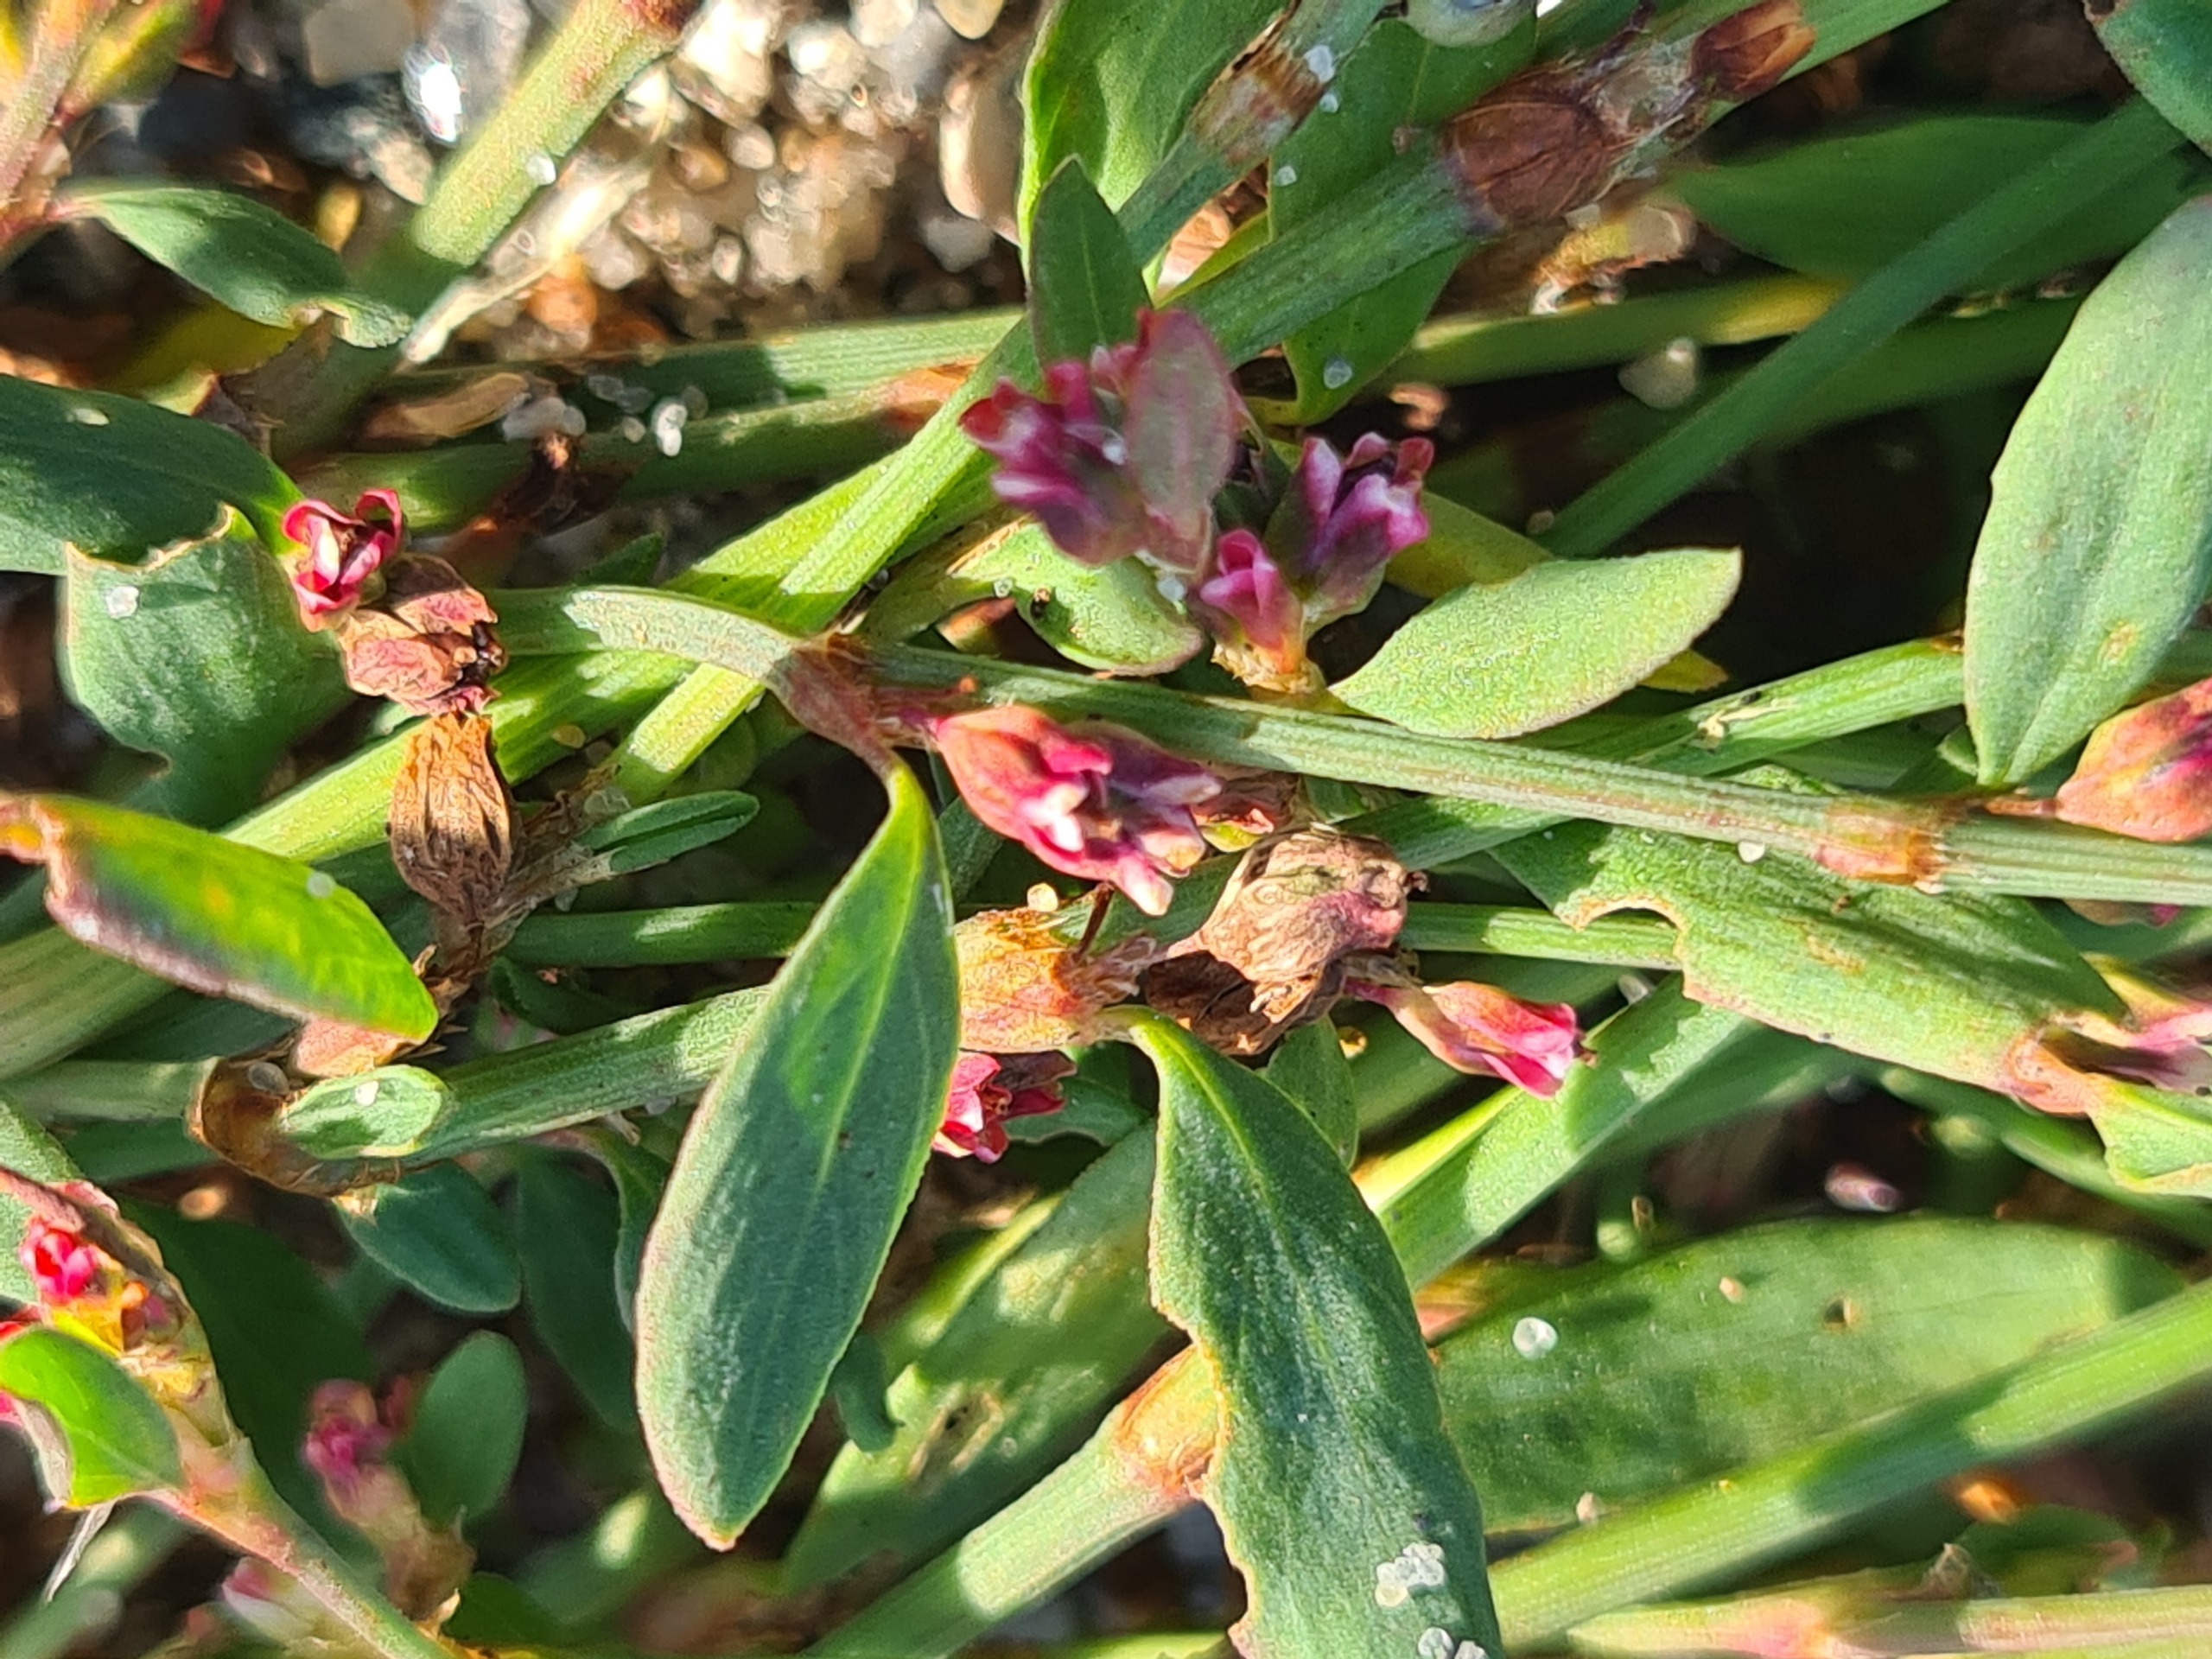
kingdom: Plantae
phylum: Tracheophyta
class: Magnoliopsida
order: Caryophyllales
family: Polygonaceae
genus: Polygonum
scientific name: Polygonum aviculare
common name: Vej-pileurt
